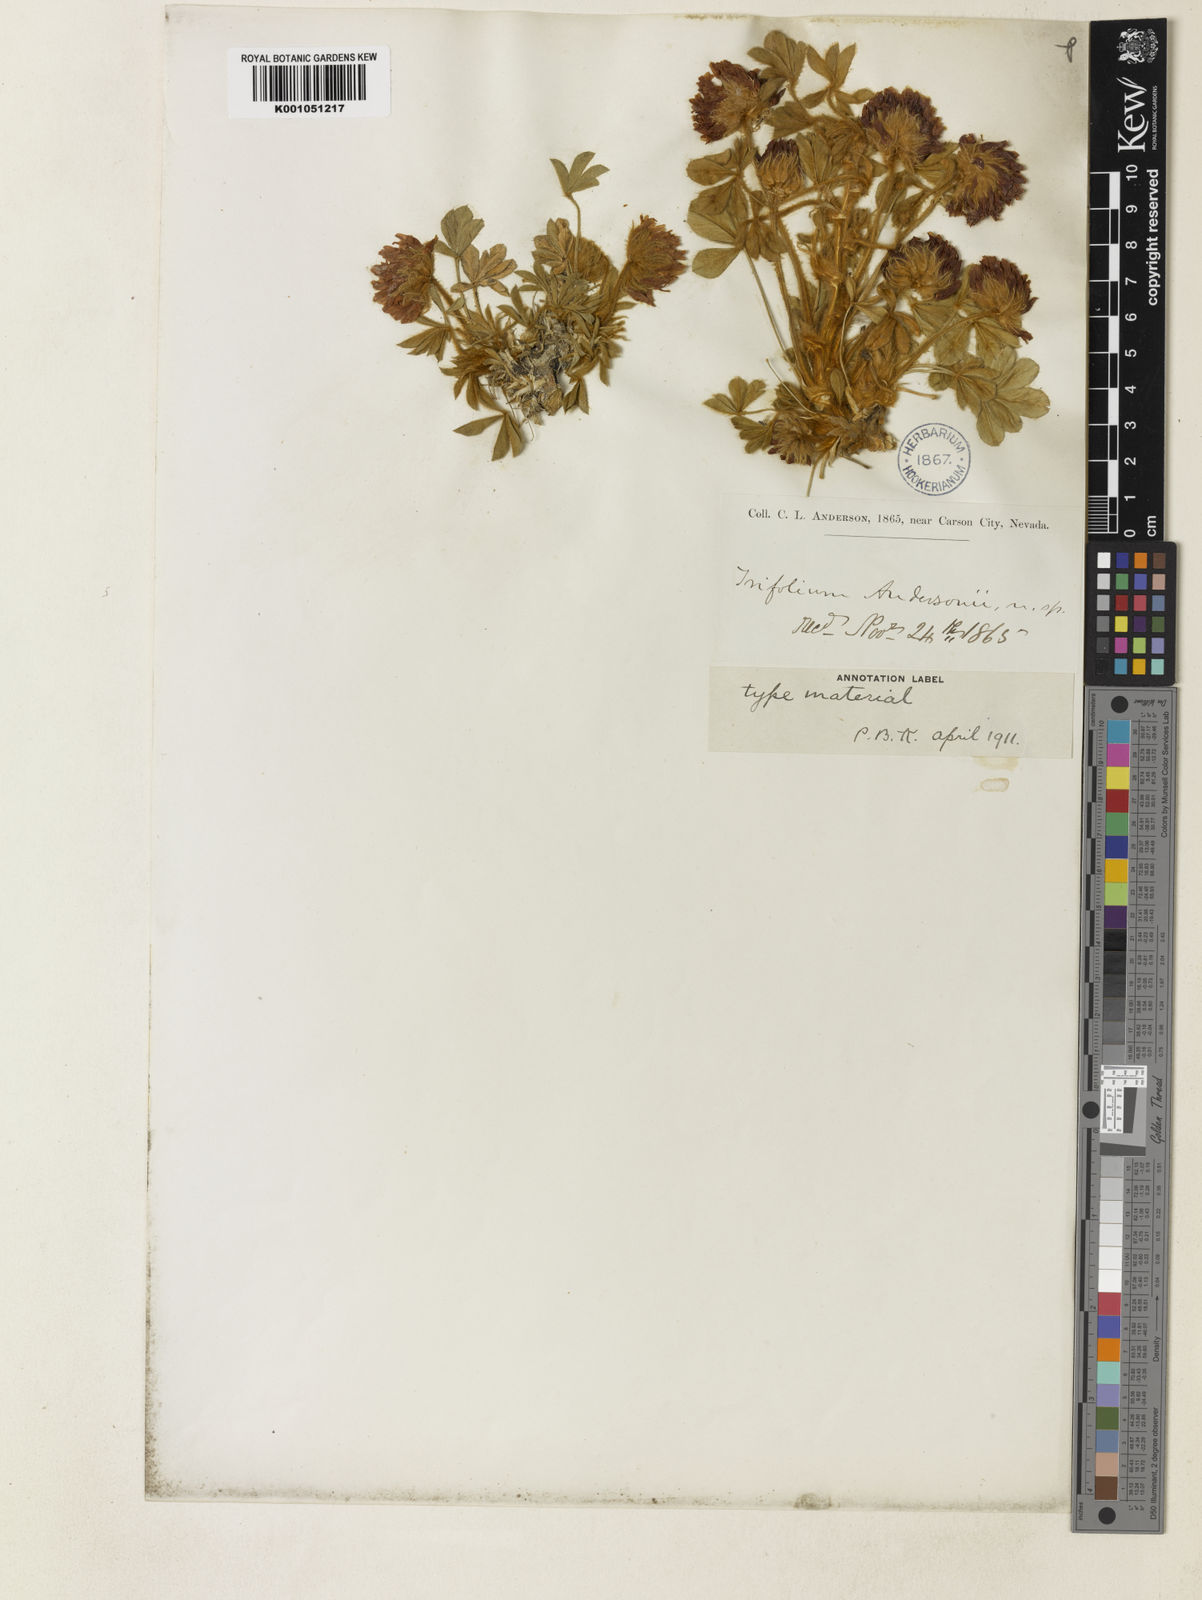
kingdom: Plantae
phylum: Tracheophyta
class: Magnoliopsida
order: Fabales
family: Fabaceae
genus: Trifolium
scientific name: Trifolium andersonii
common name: Anderson's clover
